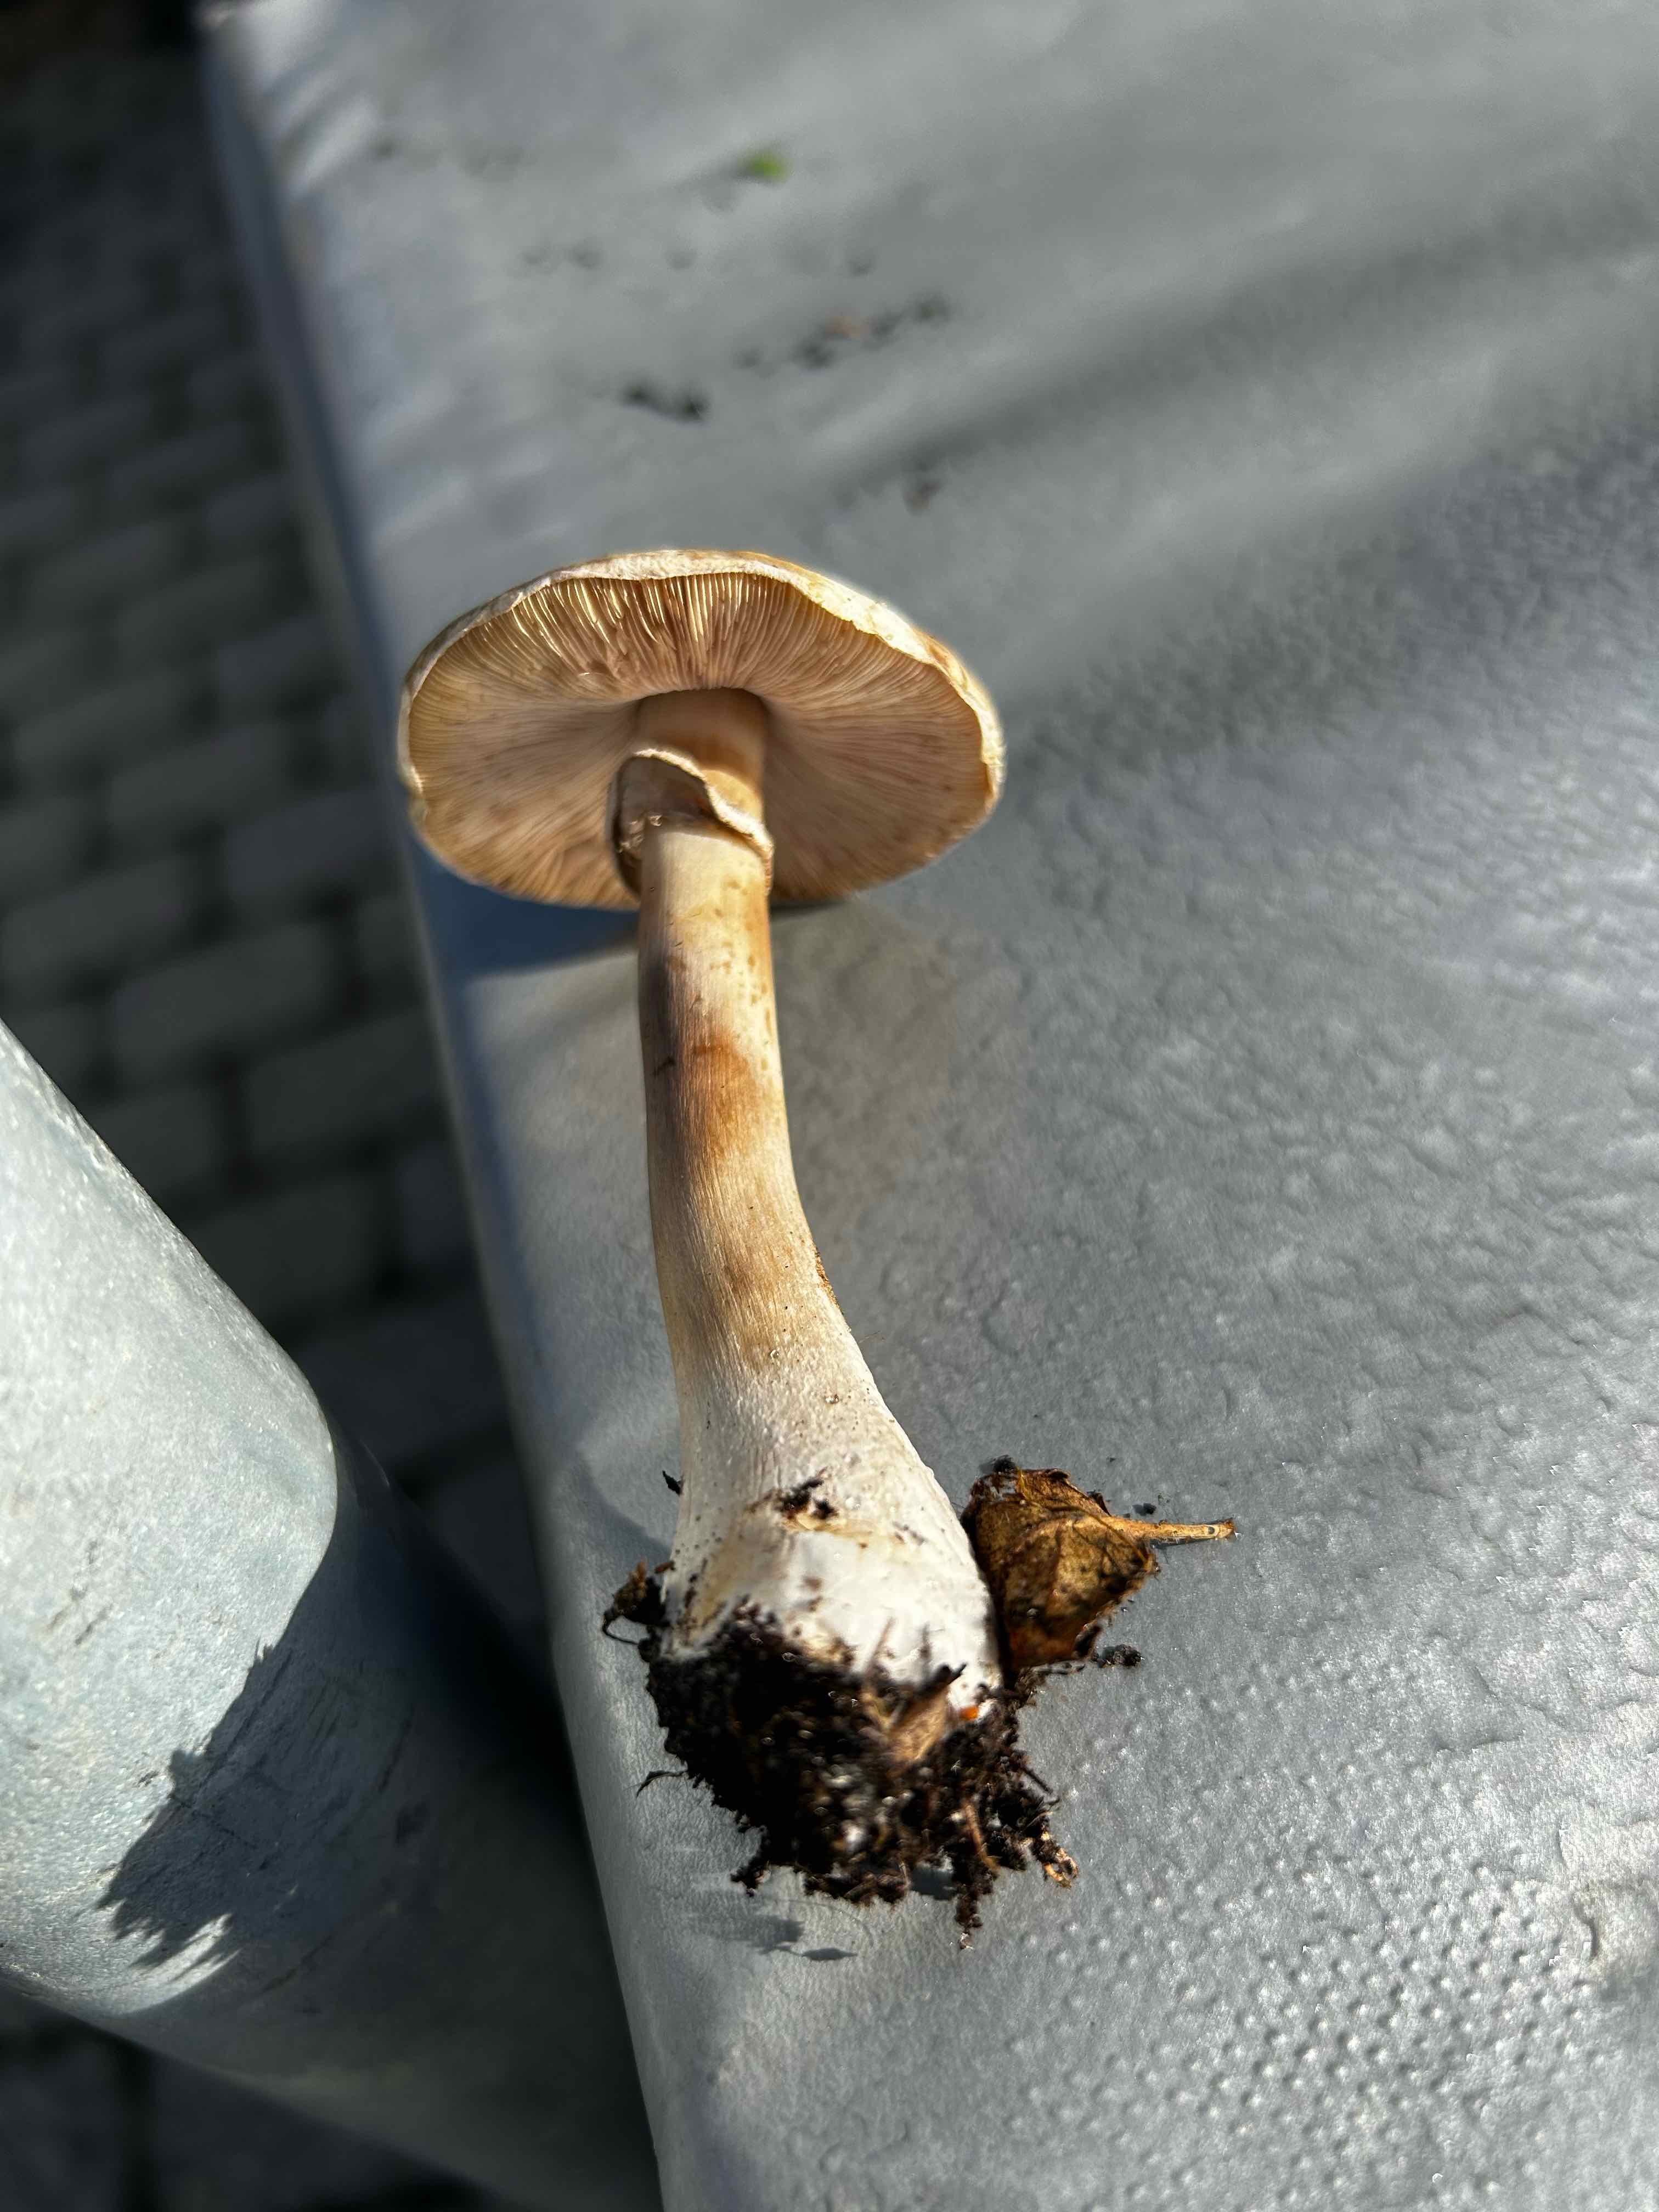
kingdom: Fungi
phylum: Basidiomycota
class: Agaricomycetes
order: Agaricales
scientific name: Agaricales
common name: champignonordenen
